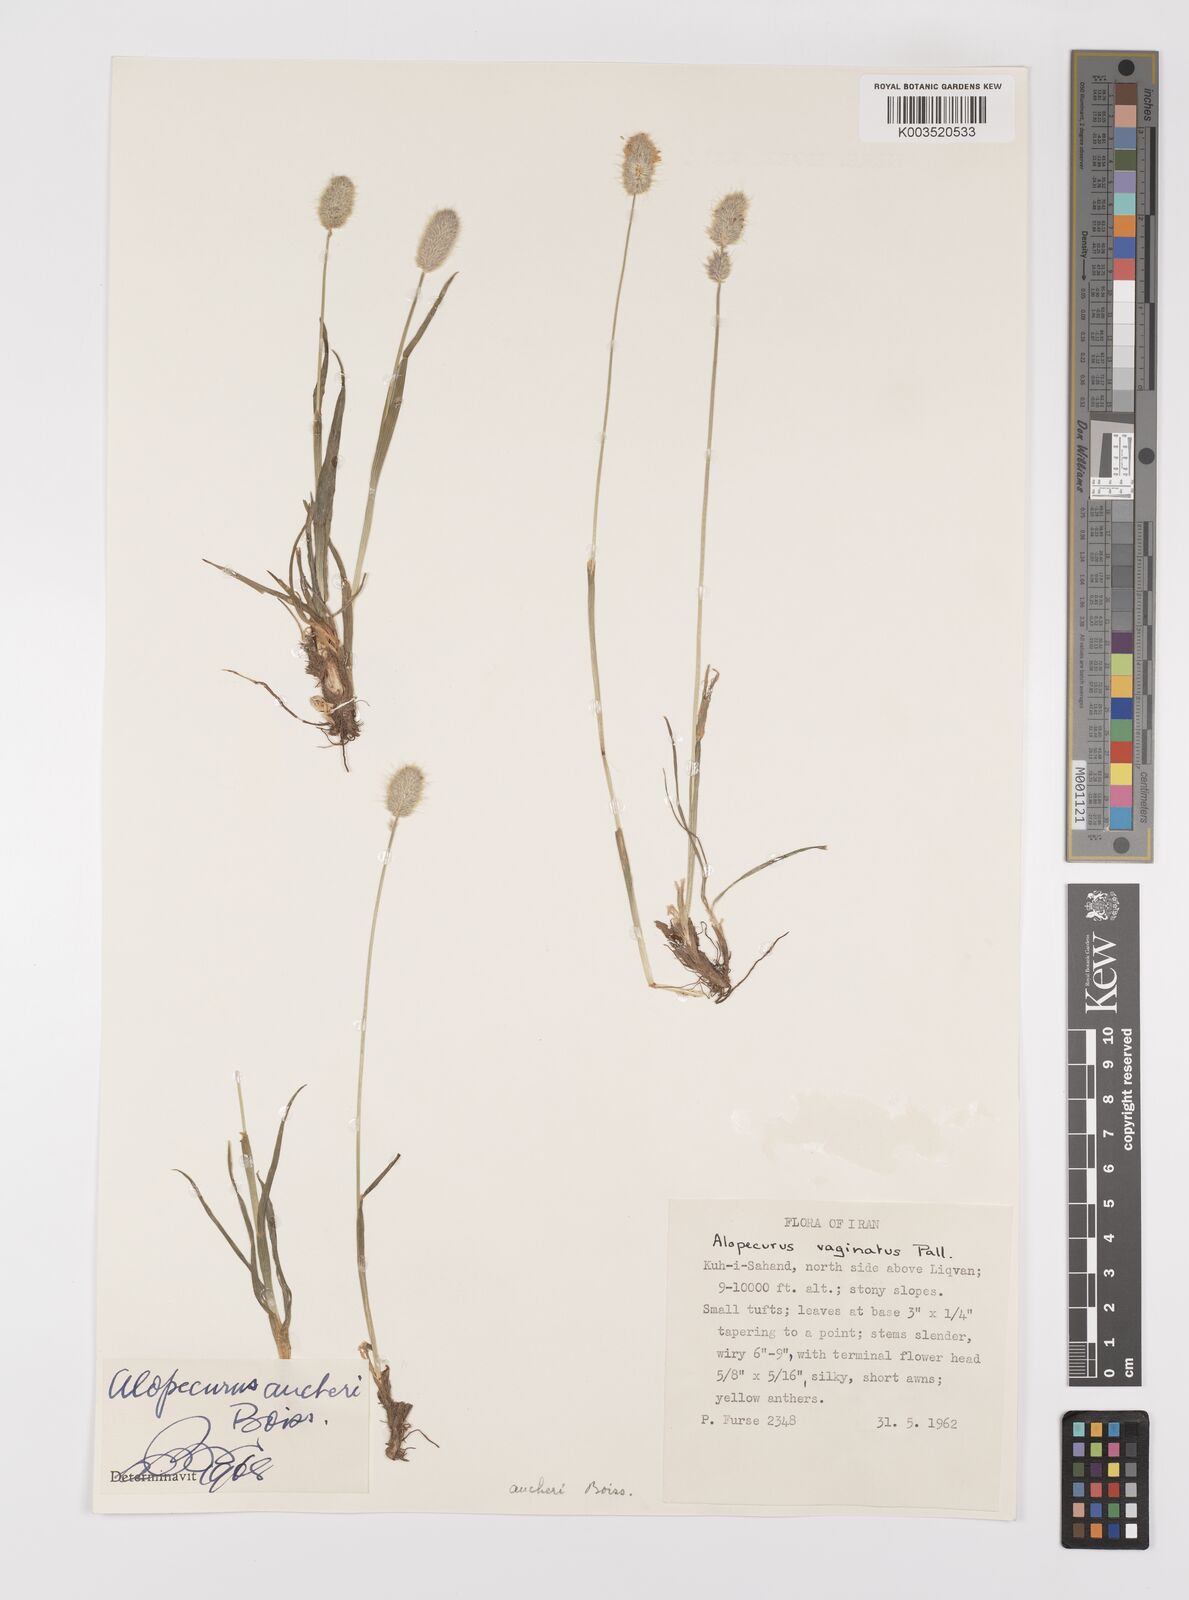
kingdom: Plantae
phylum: Tracheophyta
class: Liliopsida
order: Poales
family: Poaceae
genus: Alopecurus
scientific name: Alopecurus aucheri
